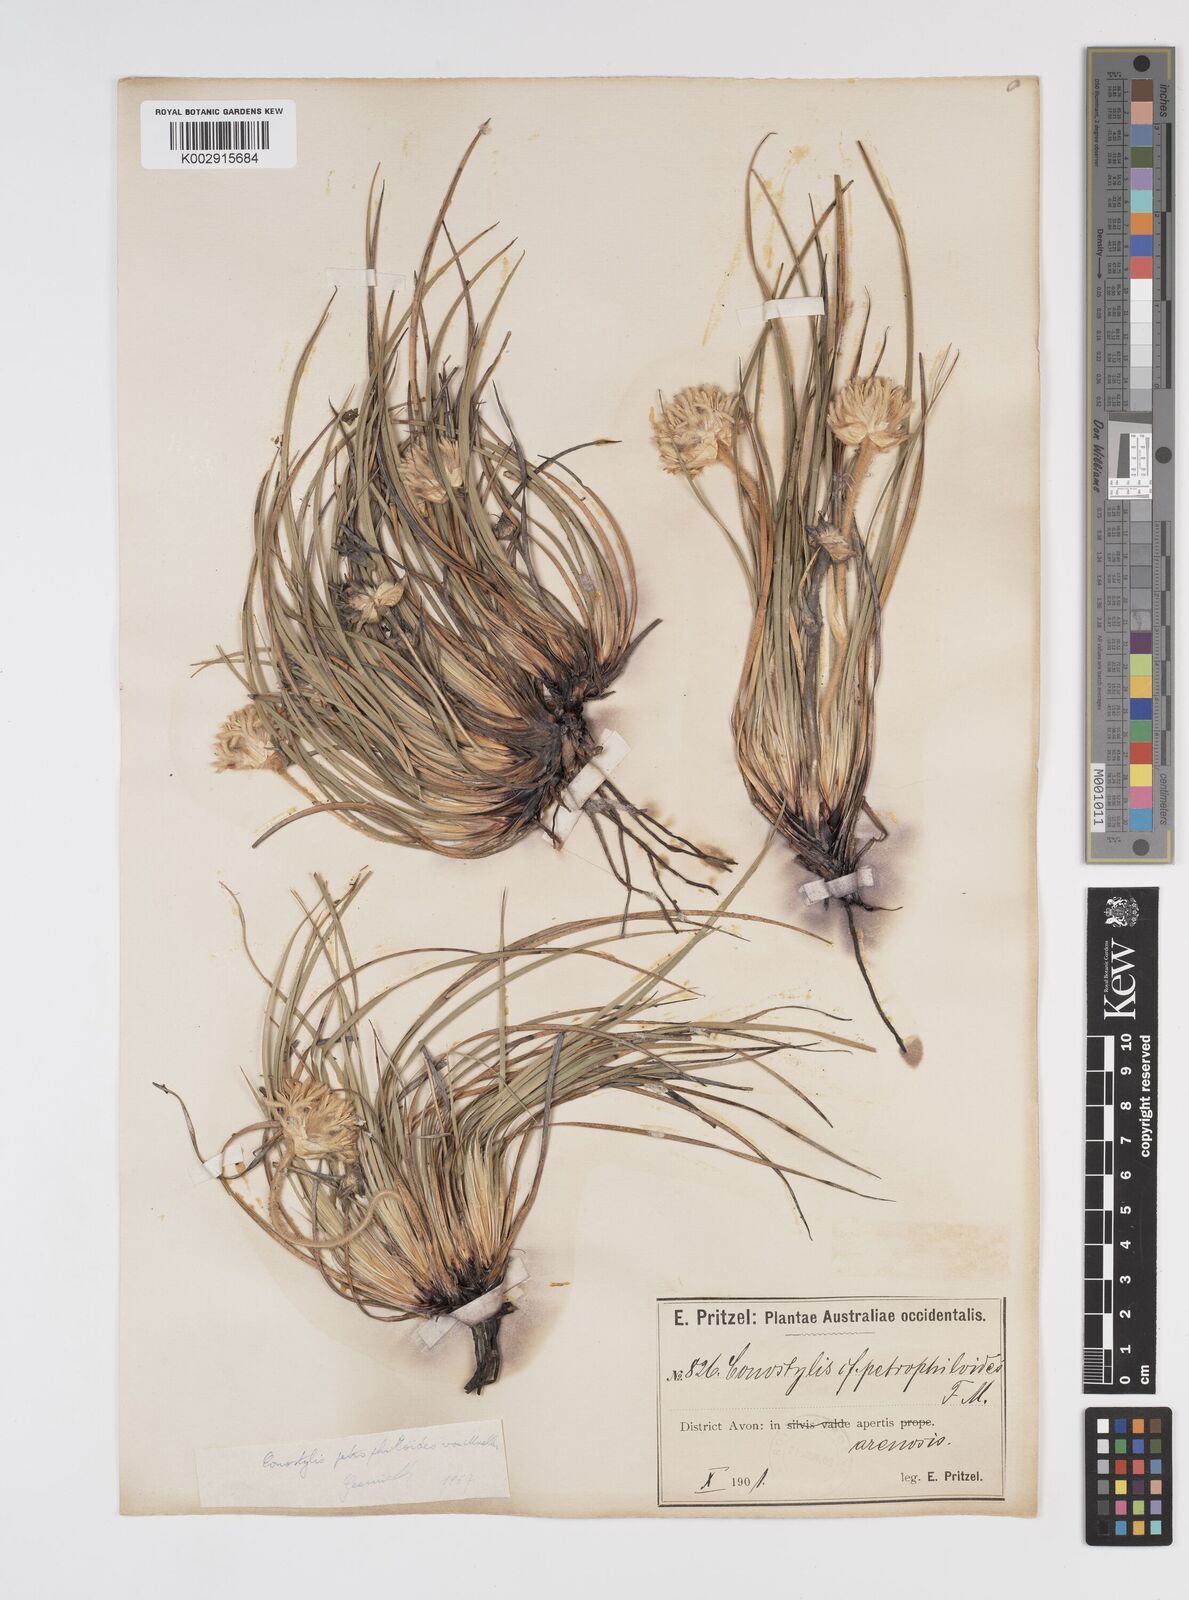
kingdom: Plantae
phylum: Tracheophyta
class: Liliopsida
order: Commelinales
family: Haemodoraceae
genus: Conostylis
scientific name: Conostylis petrophiloides
